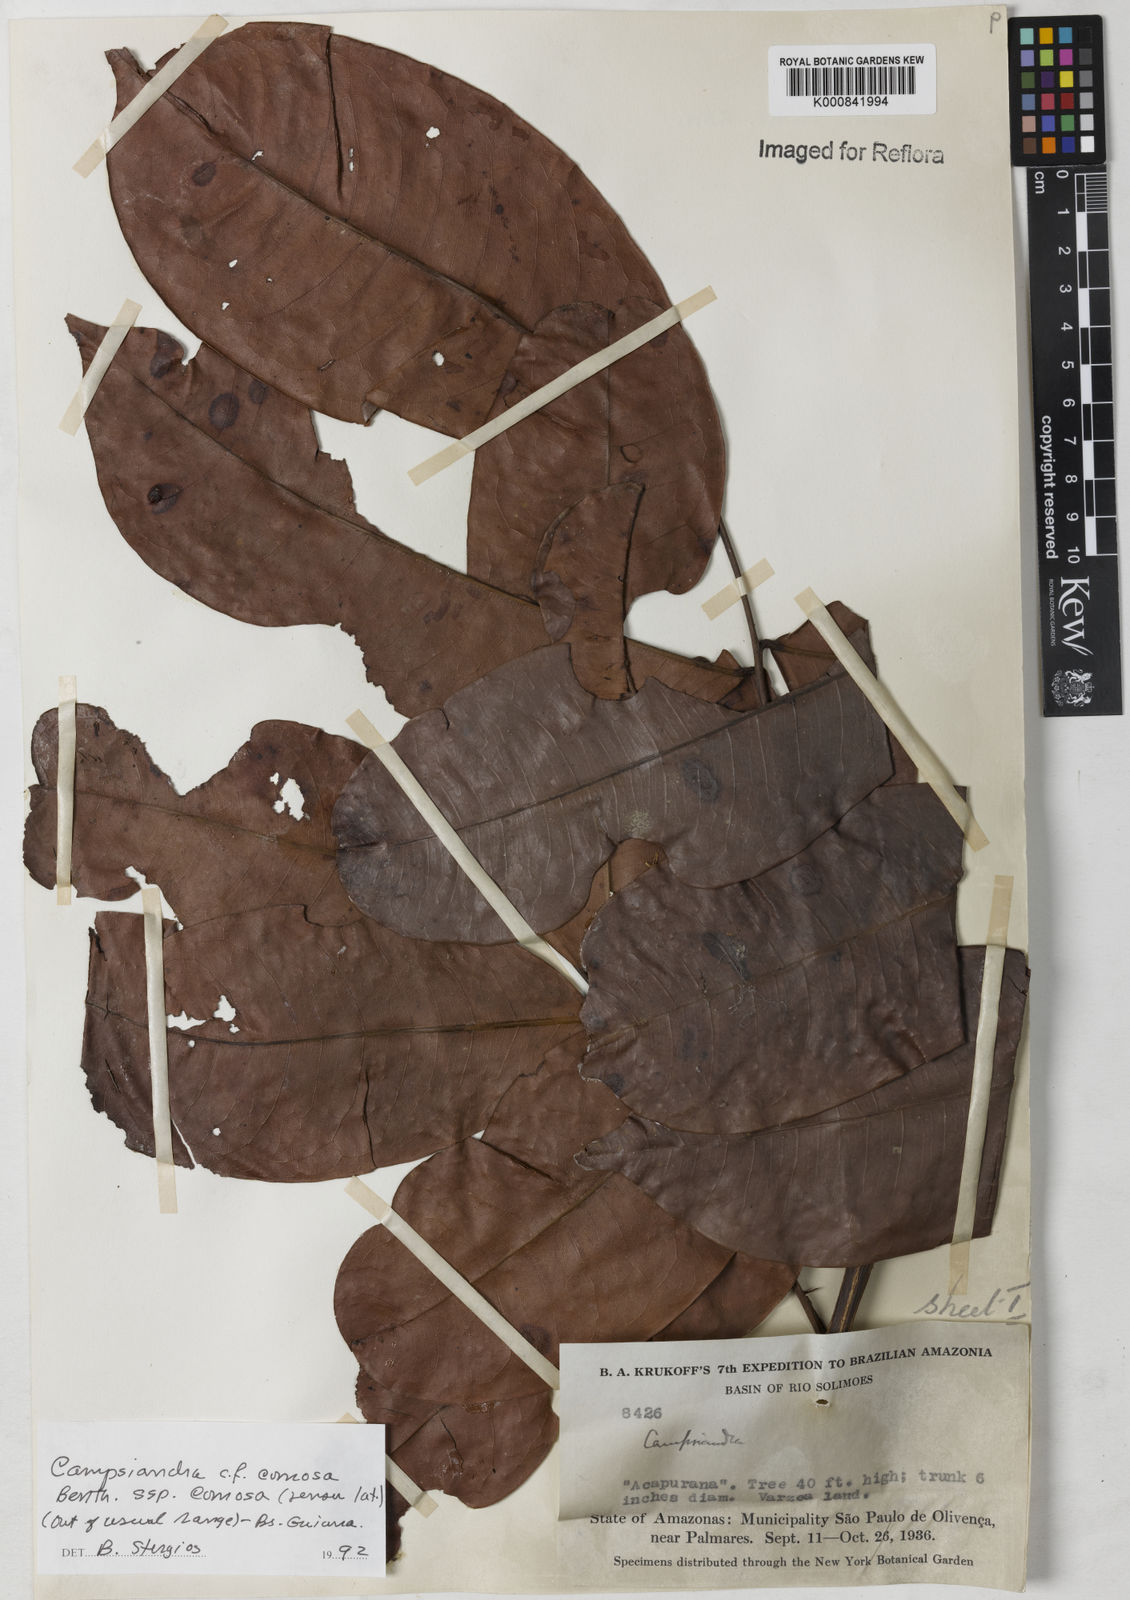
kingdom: Plantae
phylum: Tracheophyta
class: Magnoliopsida
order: Fabales
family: Fabaceae
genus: Campsiandra
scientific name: Campsiandra comosa
